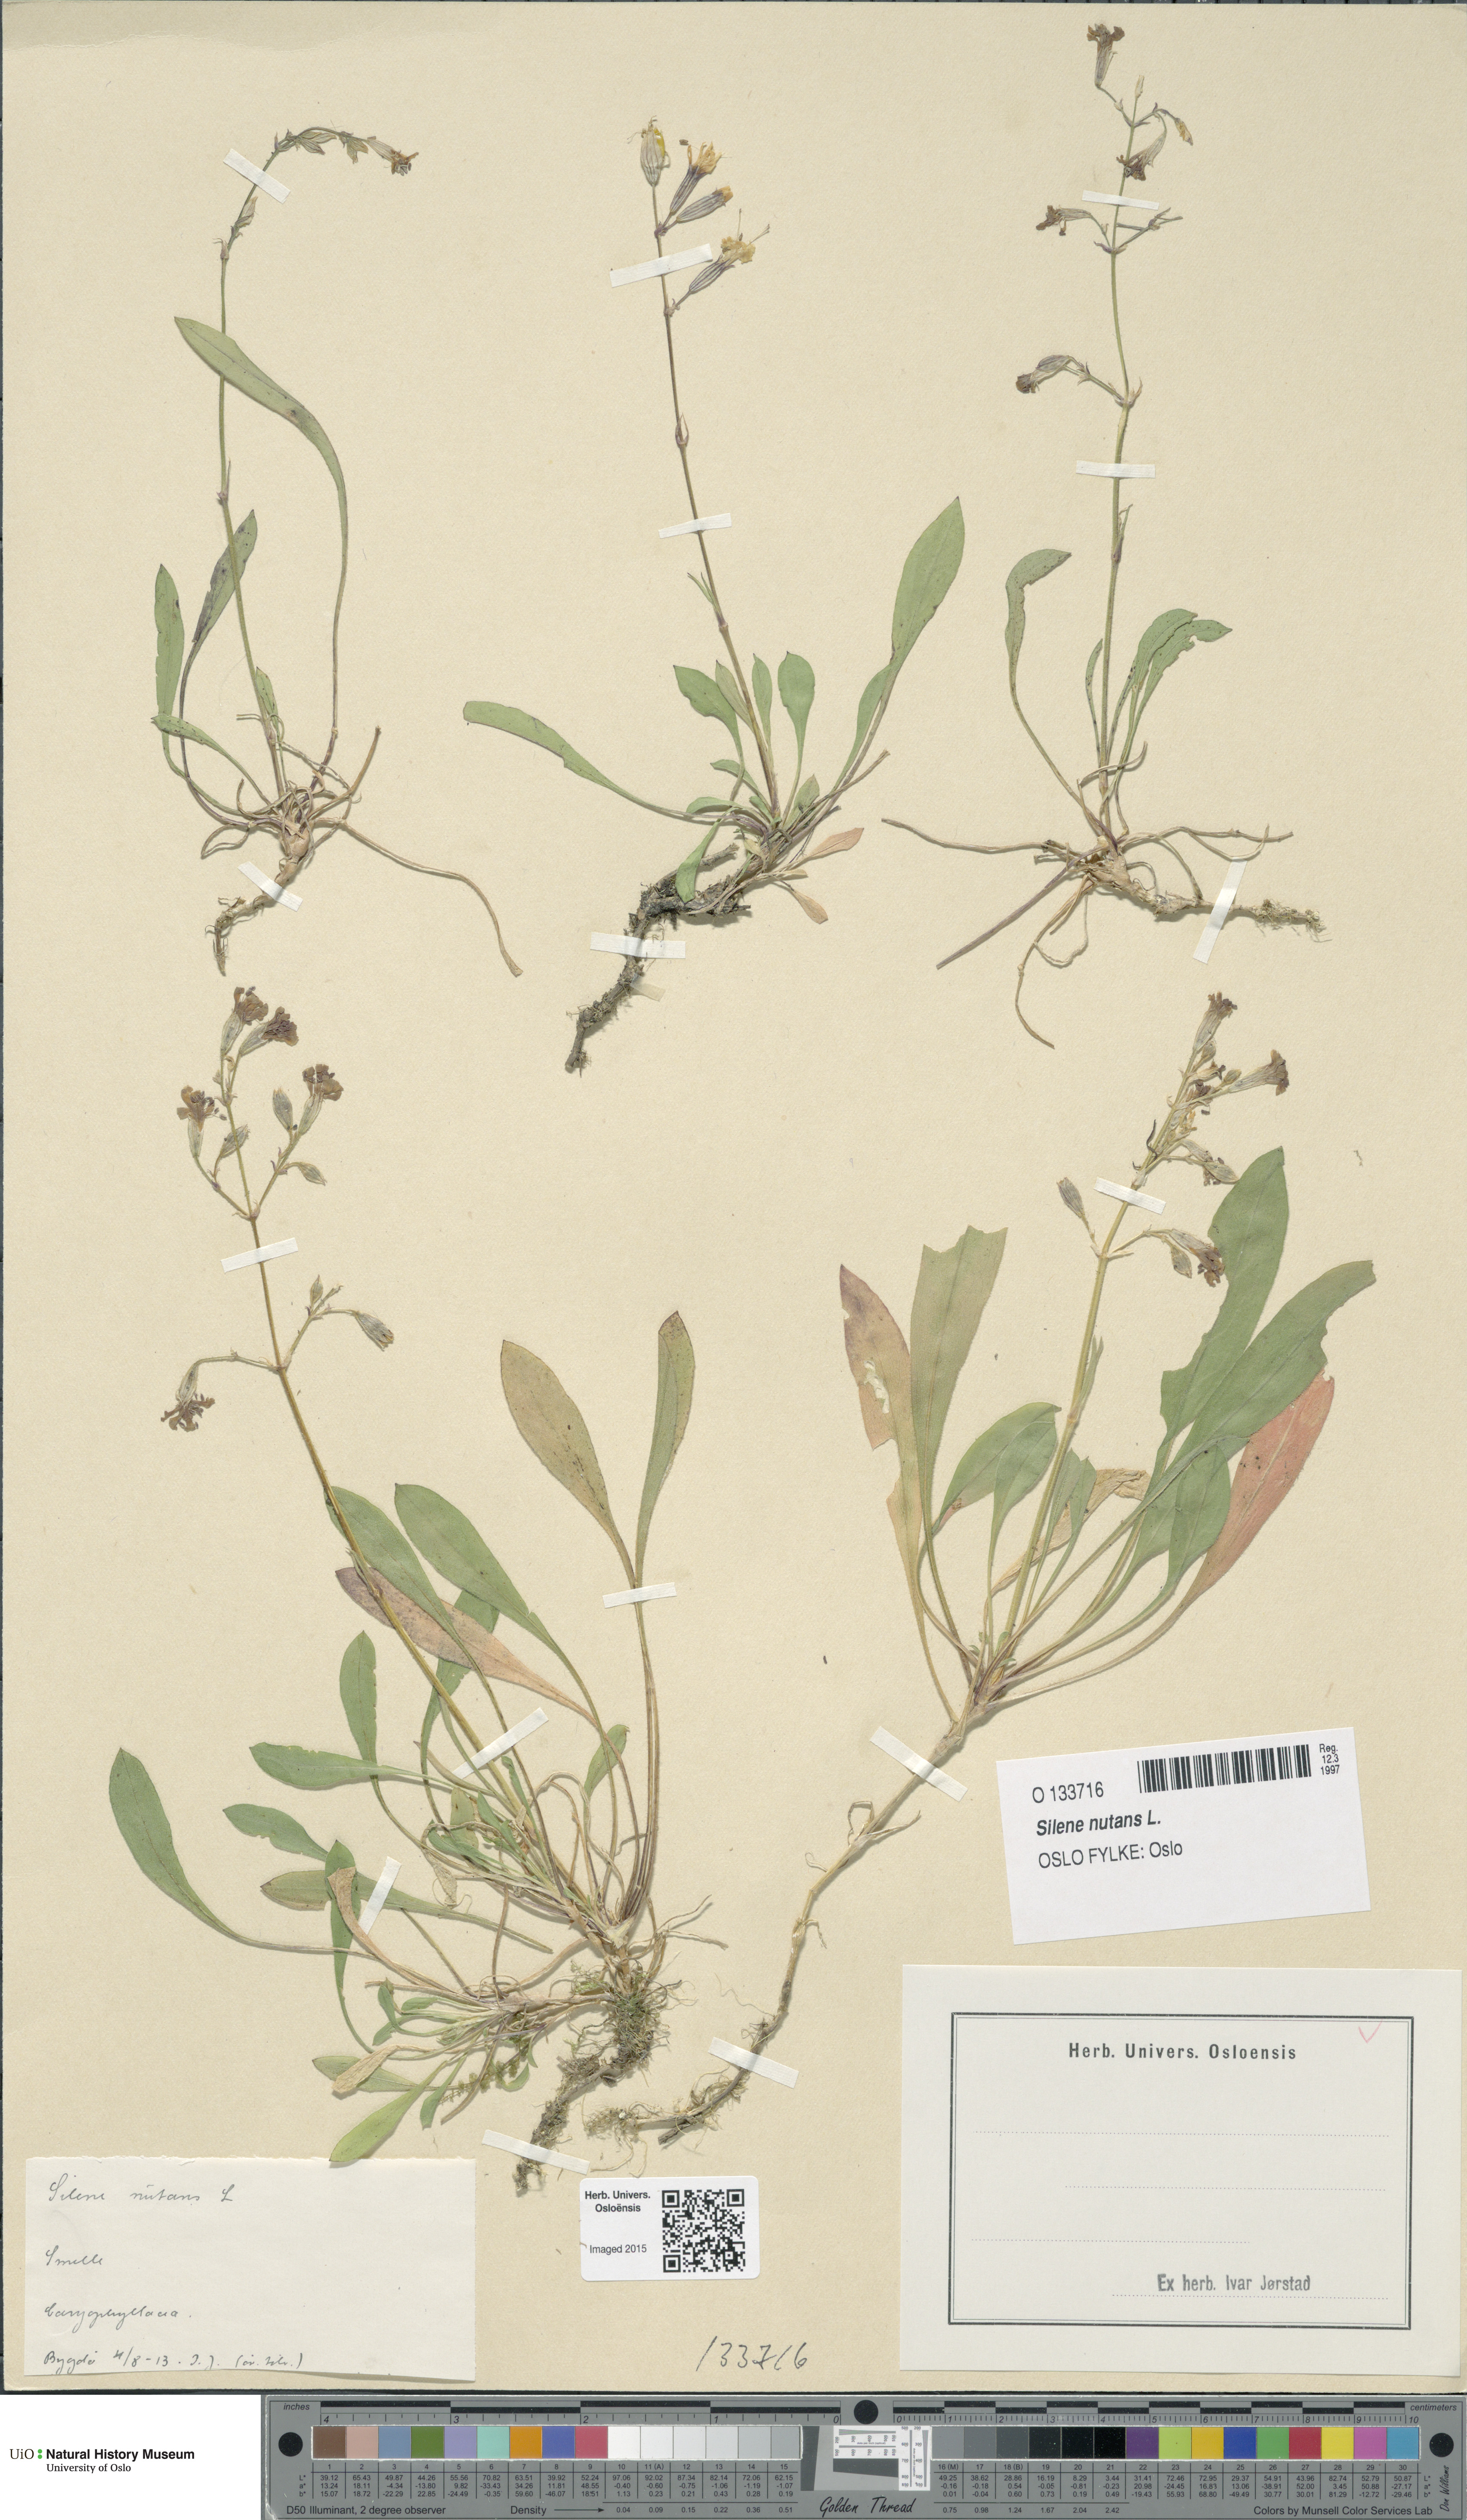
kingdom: Plantae
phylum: Tracheophyta
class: Magnoliopsida
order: Caryophyllales
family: Caryophyllaceae
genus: Silene
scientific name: Silene nutans
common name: Nottingham catchfly
